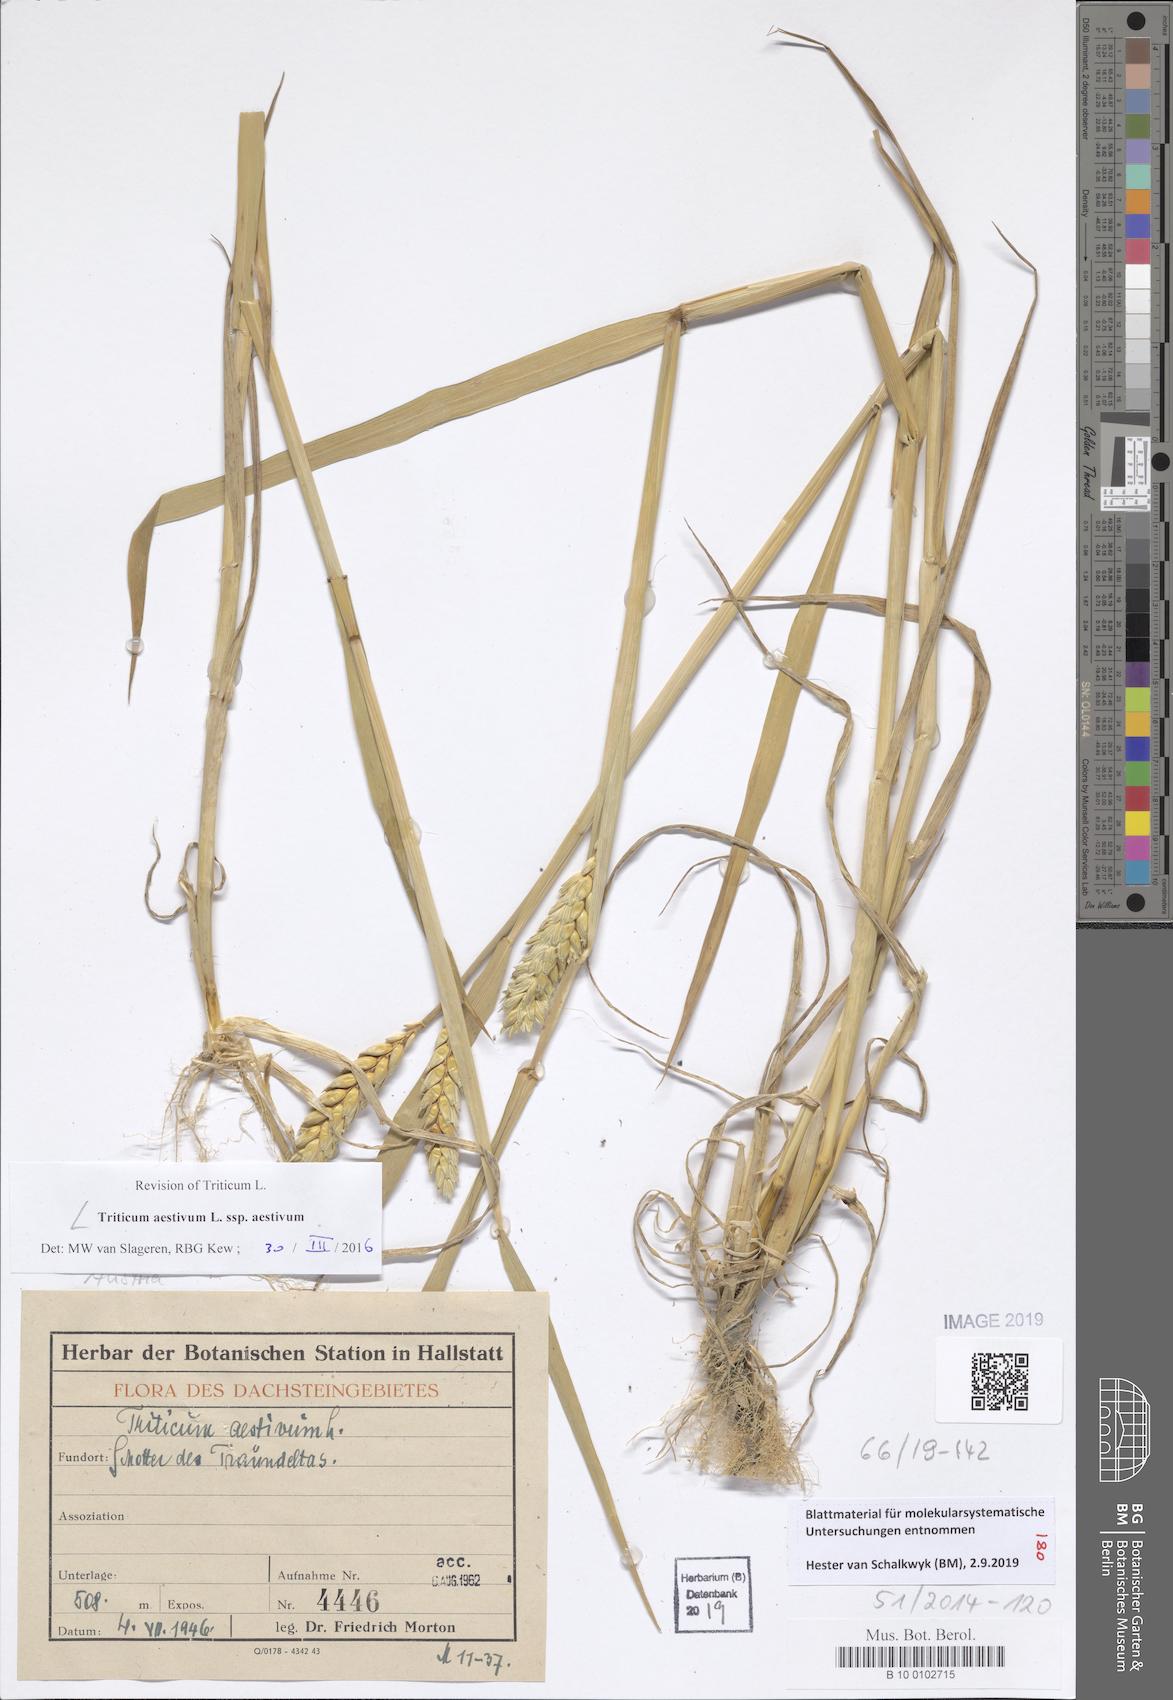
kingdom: Plantae
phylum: Tracheophyta
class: Liliopsida
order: Poales
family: Poaceae
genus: Triticum
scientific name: Triticum aestivum
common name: Common wheat
